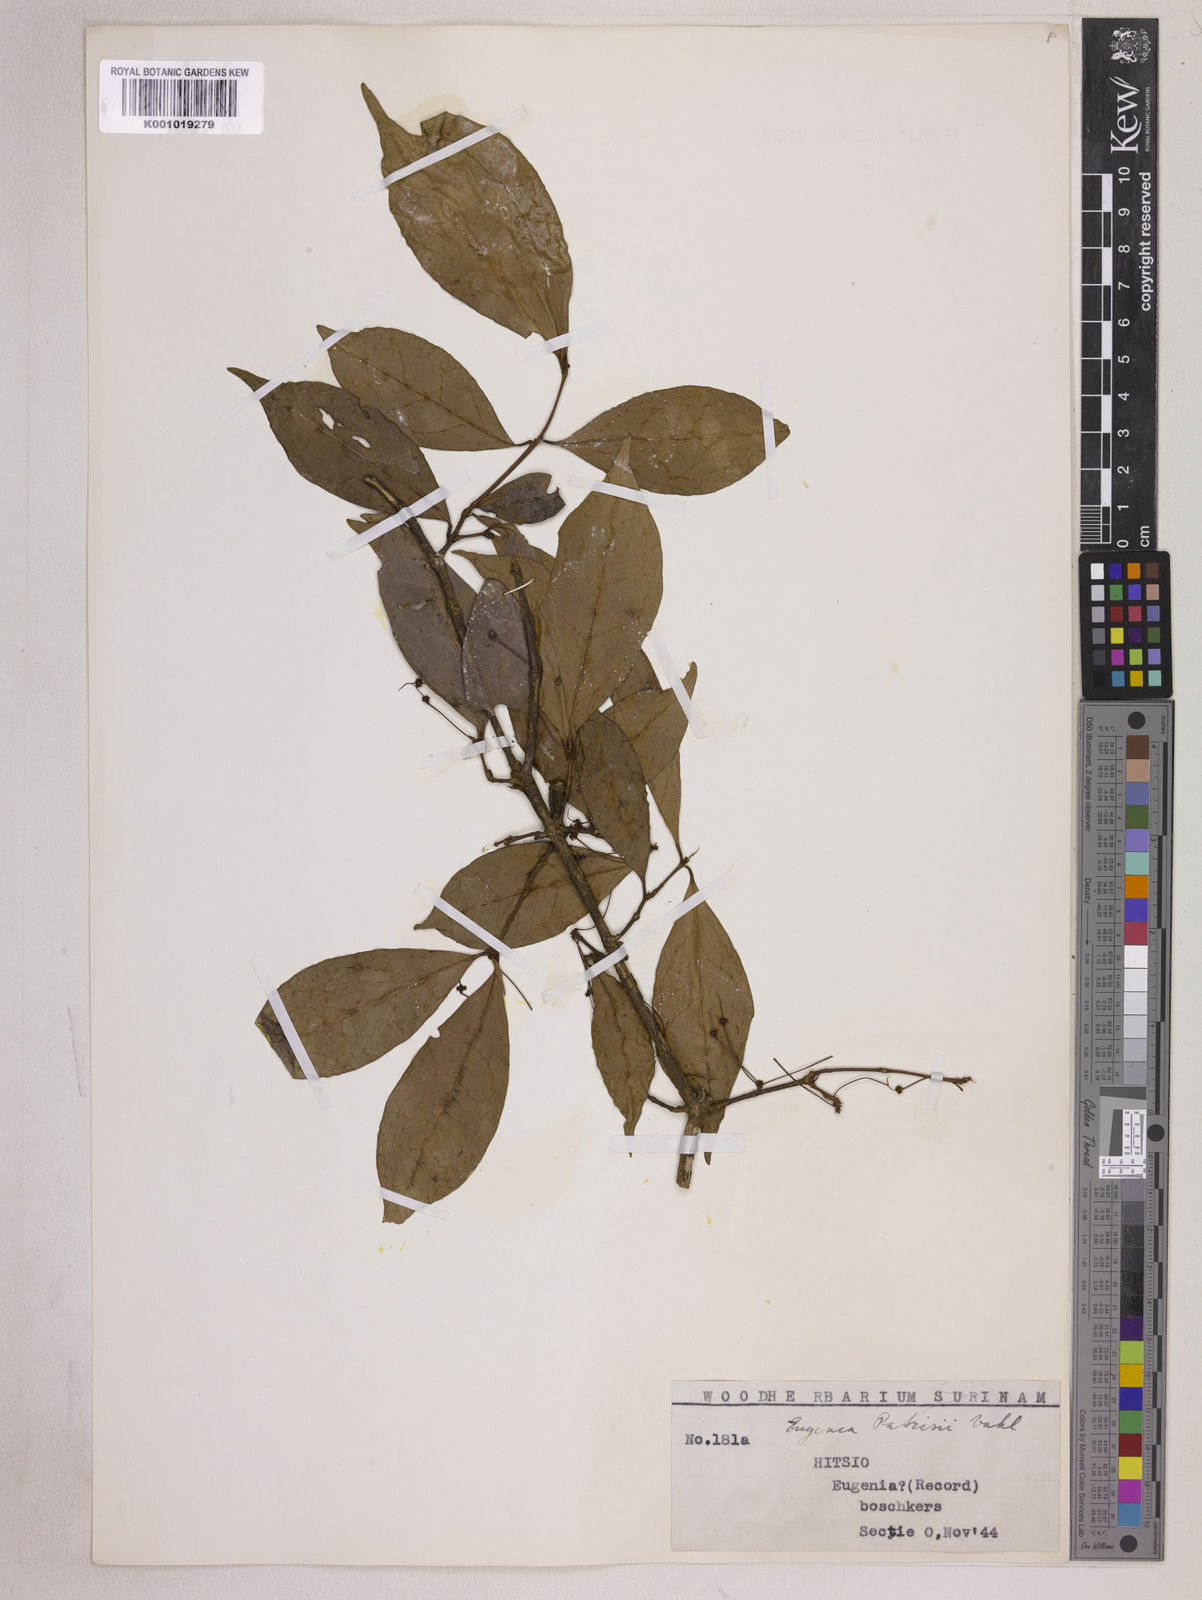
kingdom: Plantae
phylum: Tracheophyta
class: Magnoliopsida
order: Myrtales
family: Myrtaceae
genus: Eugenia
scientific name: Eugenia patrisii
